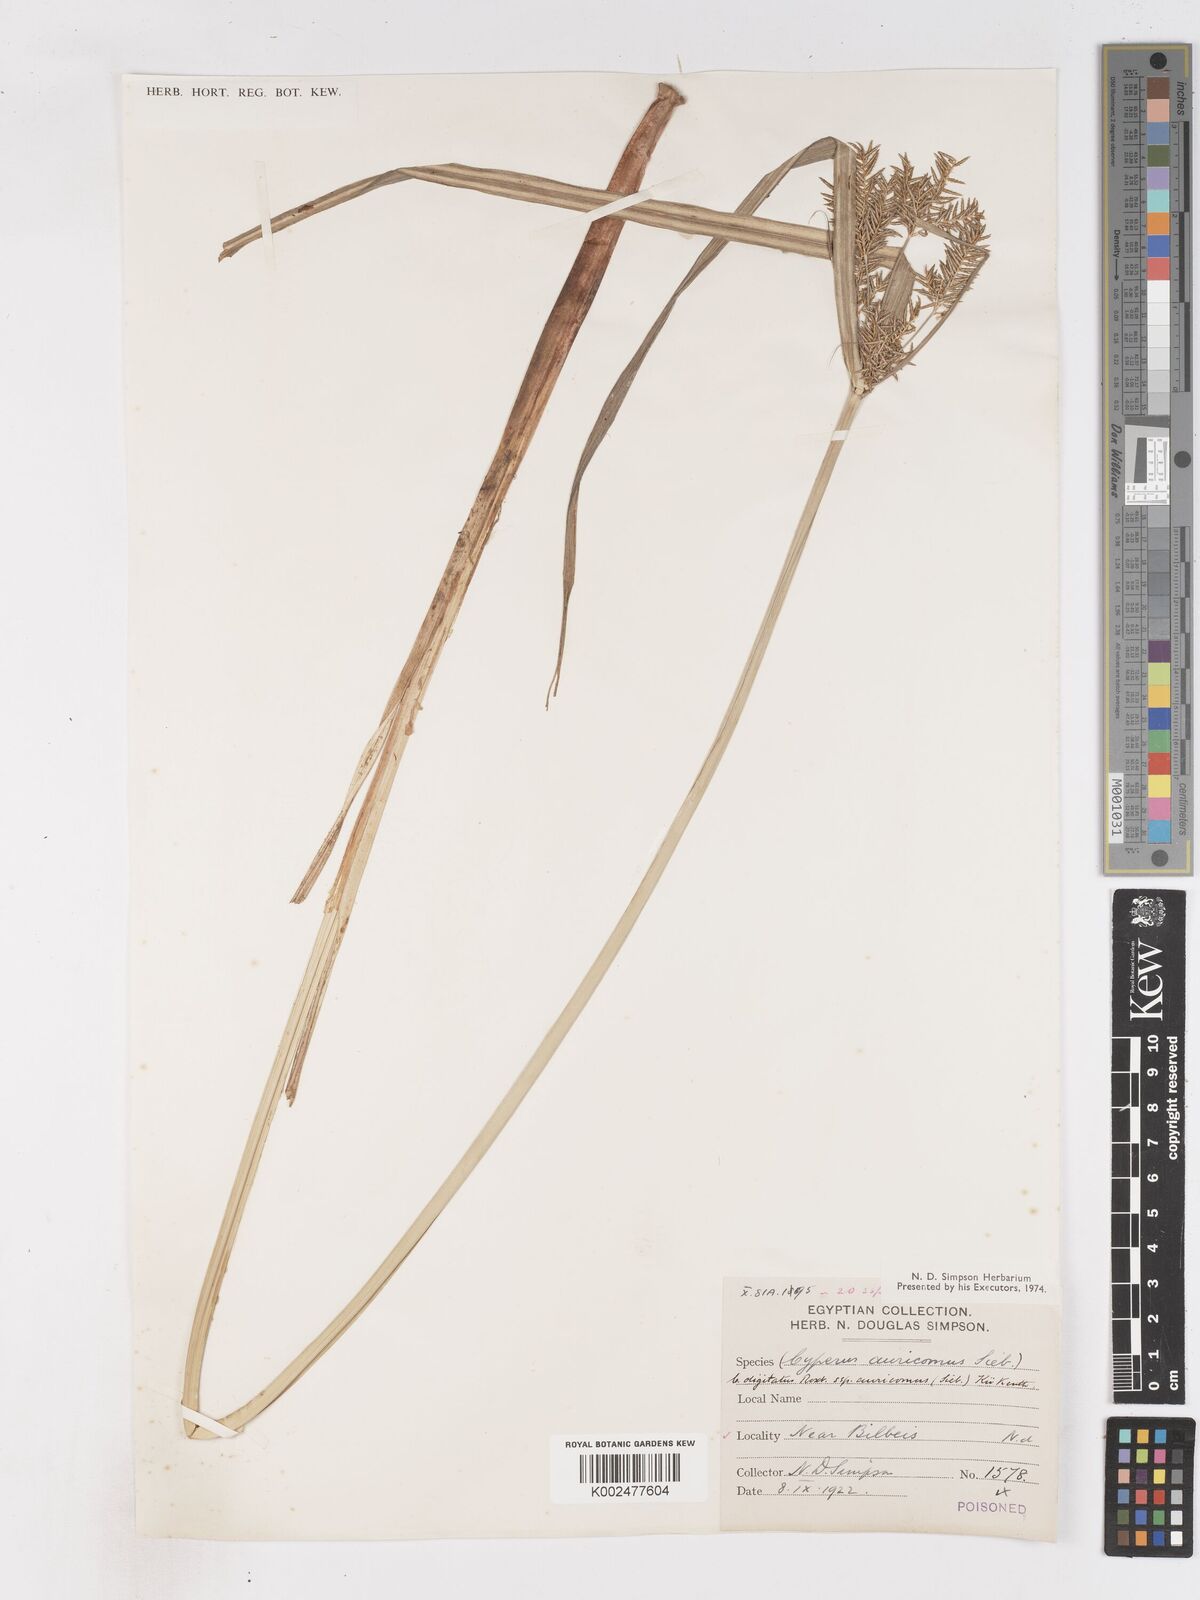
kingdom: Plantae
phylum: Tracheophyta
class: Liliopsida
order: Poales
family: Cyperaceae
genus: Cyperus
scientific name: Cyperus digitatus
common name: Finger flatsedge
